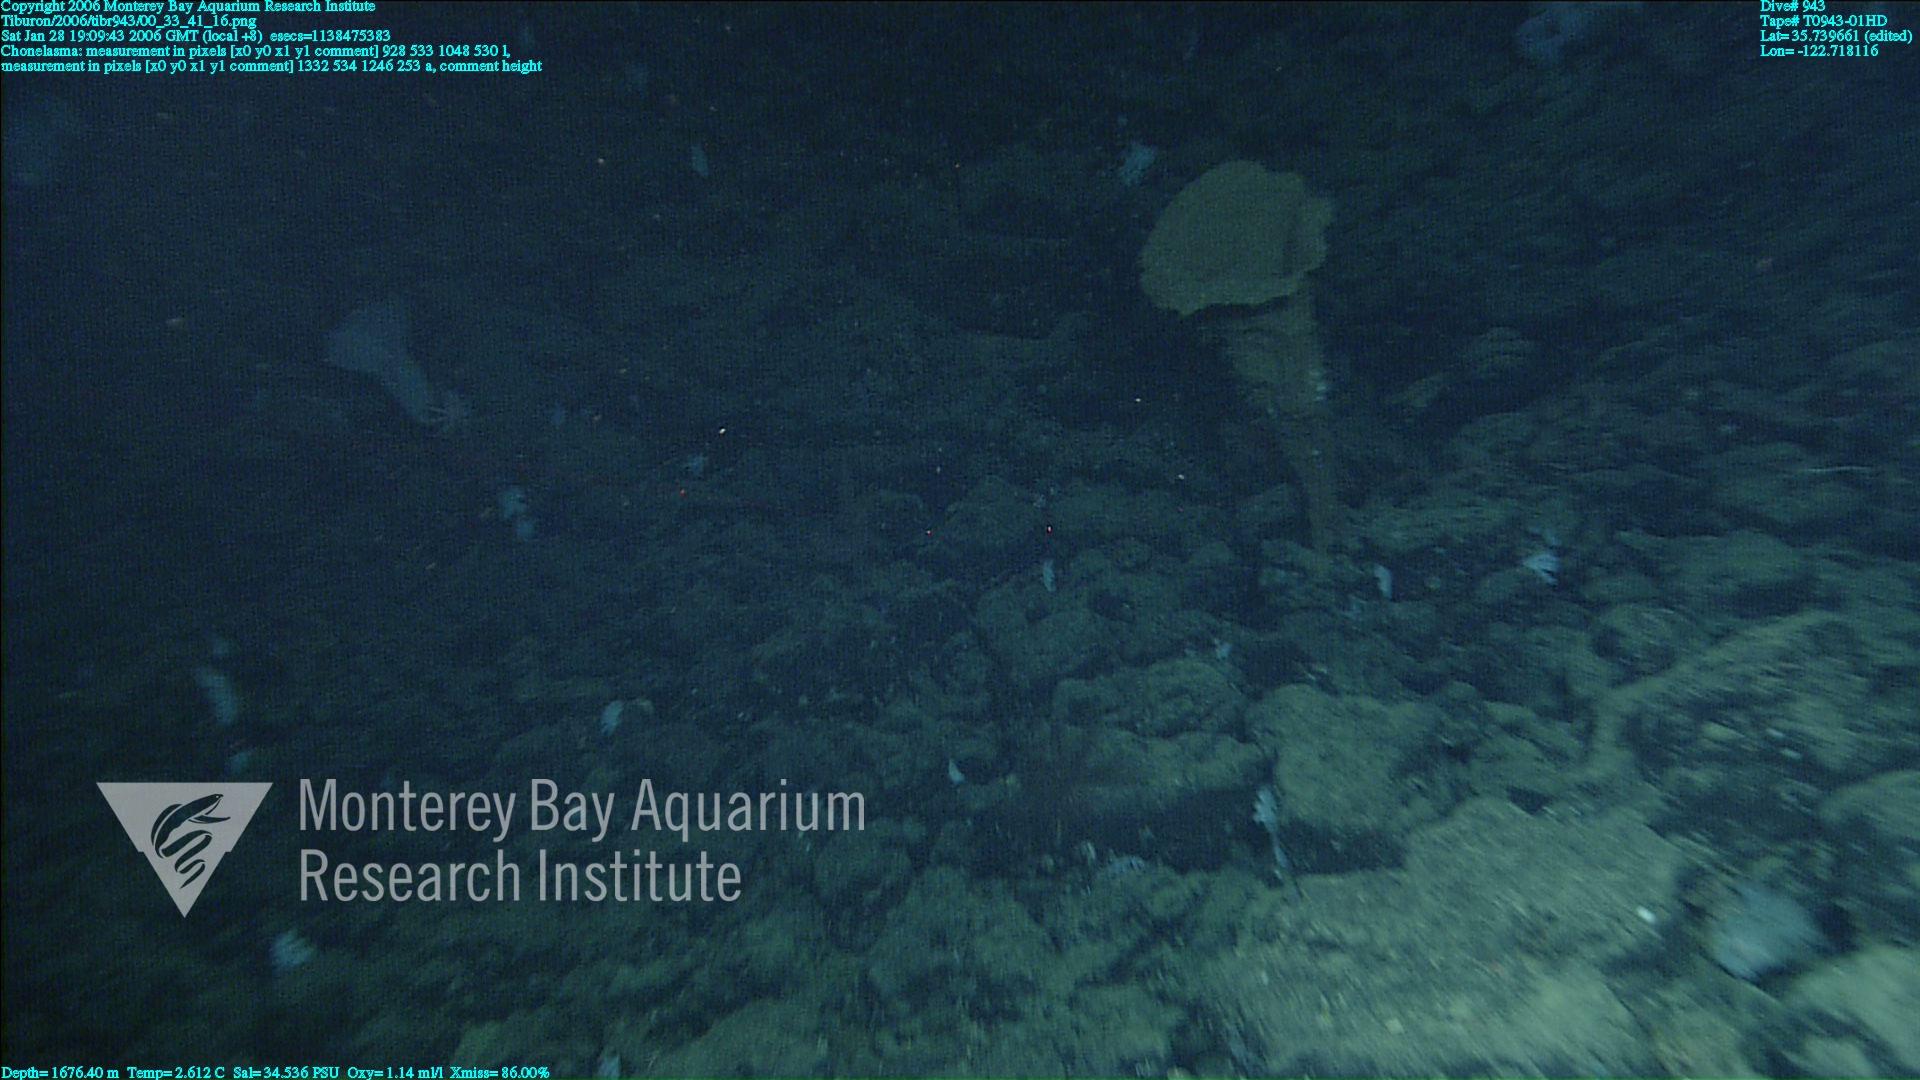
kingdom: Animalia
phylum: Porifera
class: Hexactinellida
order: Sceptrulophora
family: Euretidae
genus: Chonelasma
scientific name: Chonelasma
